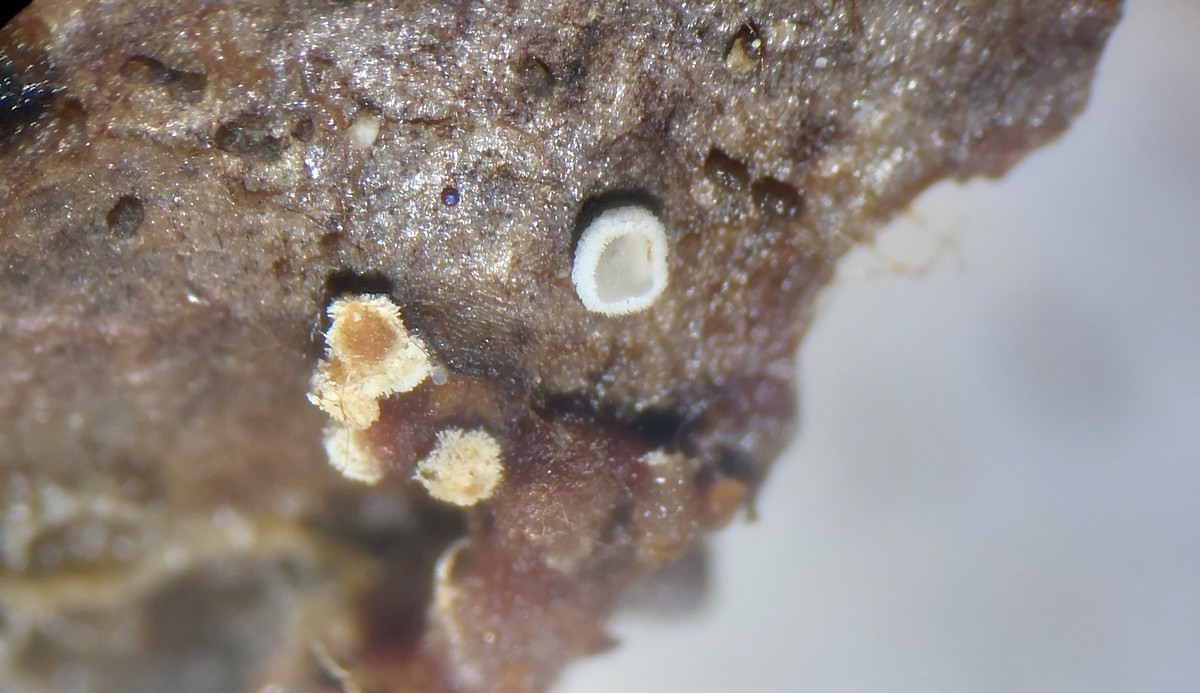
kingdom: Fungi
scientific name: Fungi
